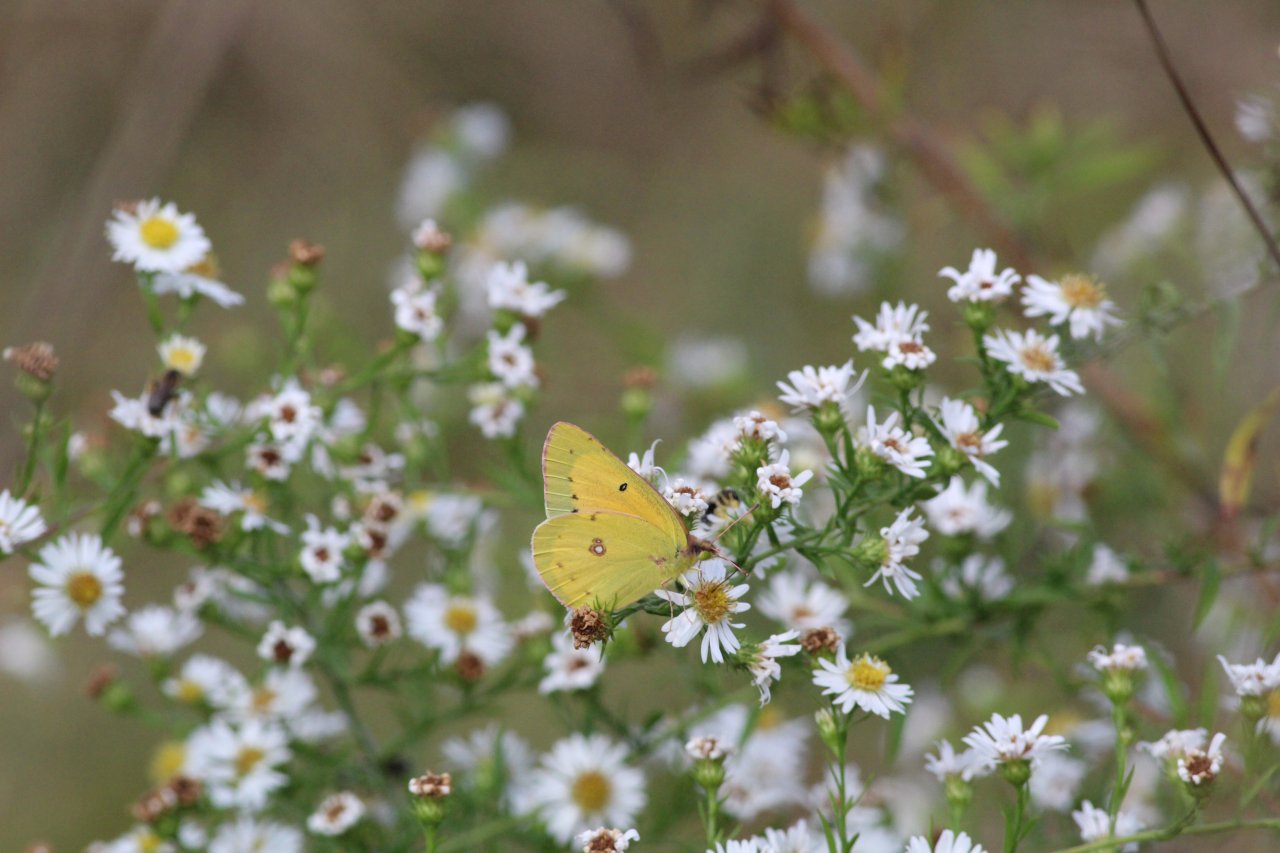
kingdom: Animalia
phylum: Arthropoda
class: Insecta
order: Lepidoptera
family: Pieridae
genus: Colias
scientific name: Colias eurytheme
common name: Orange Sulphur
